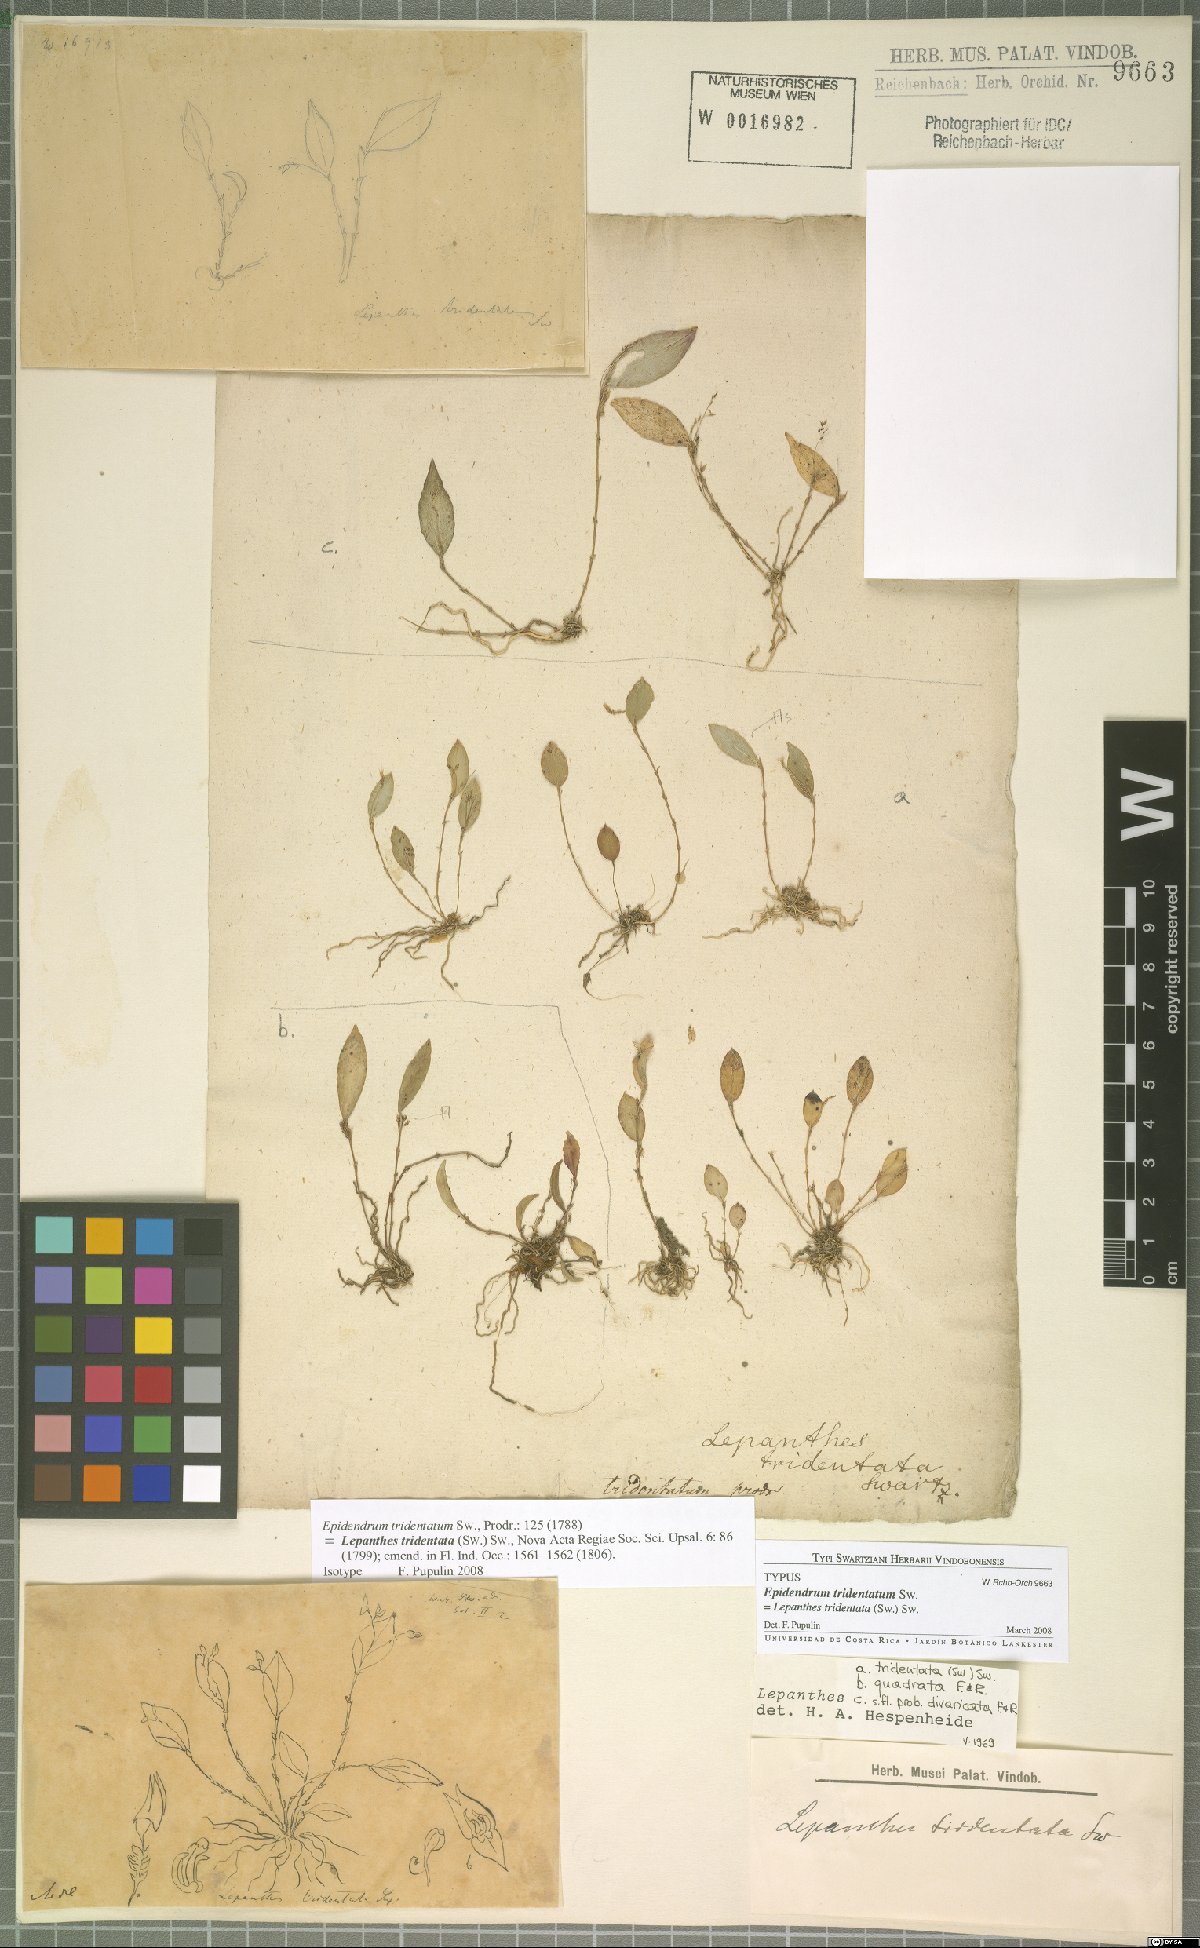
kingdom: Plantae
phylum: Tracheophyta
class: Liliopsida
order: Asparagales
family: Orchidaceae
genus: Lepanthes
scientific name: Lepanthes tridentata
